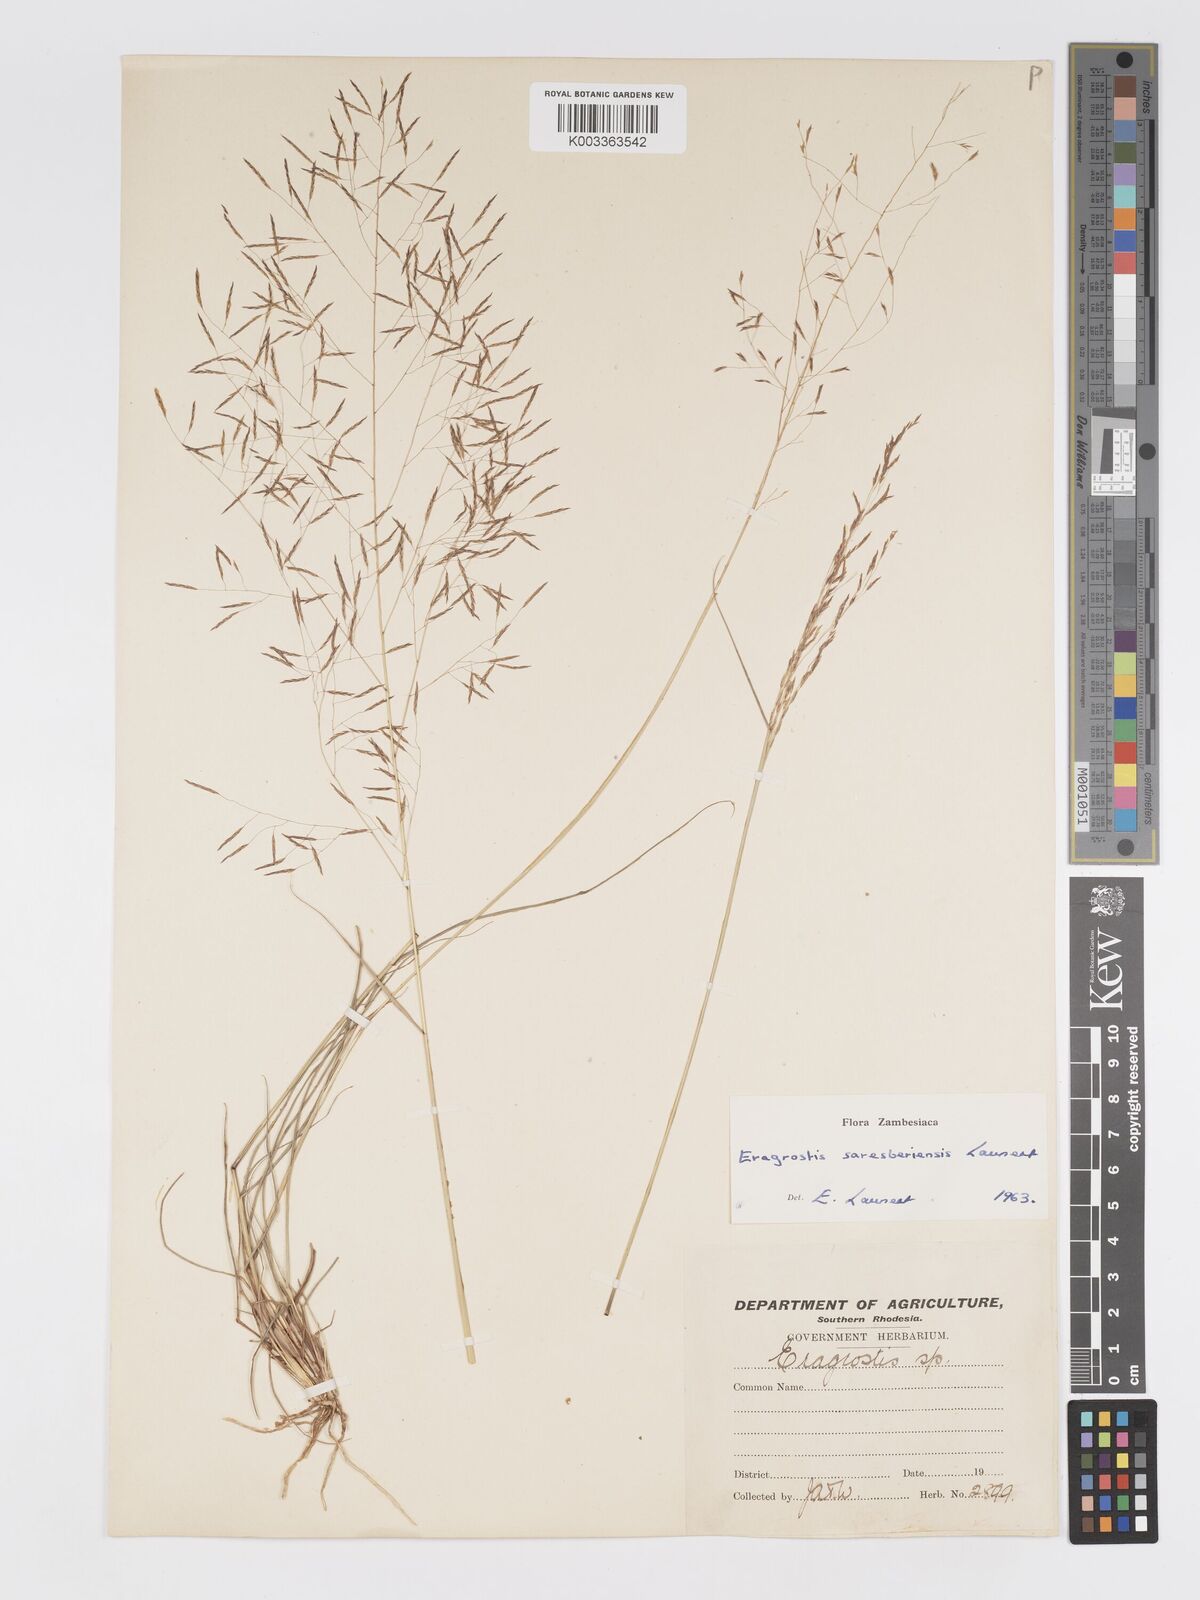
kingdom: Plantae
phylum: Tracheophyta
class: Liliopsida
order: Poales
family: Poaceae
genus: Eragrostis
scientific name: Eragrostis saresberiensis
